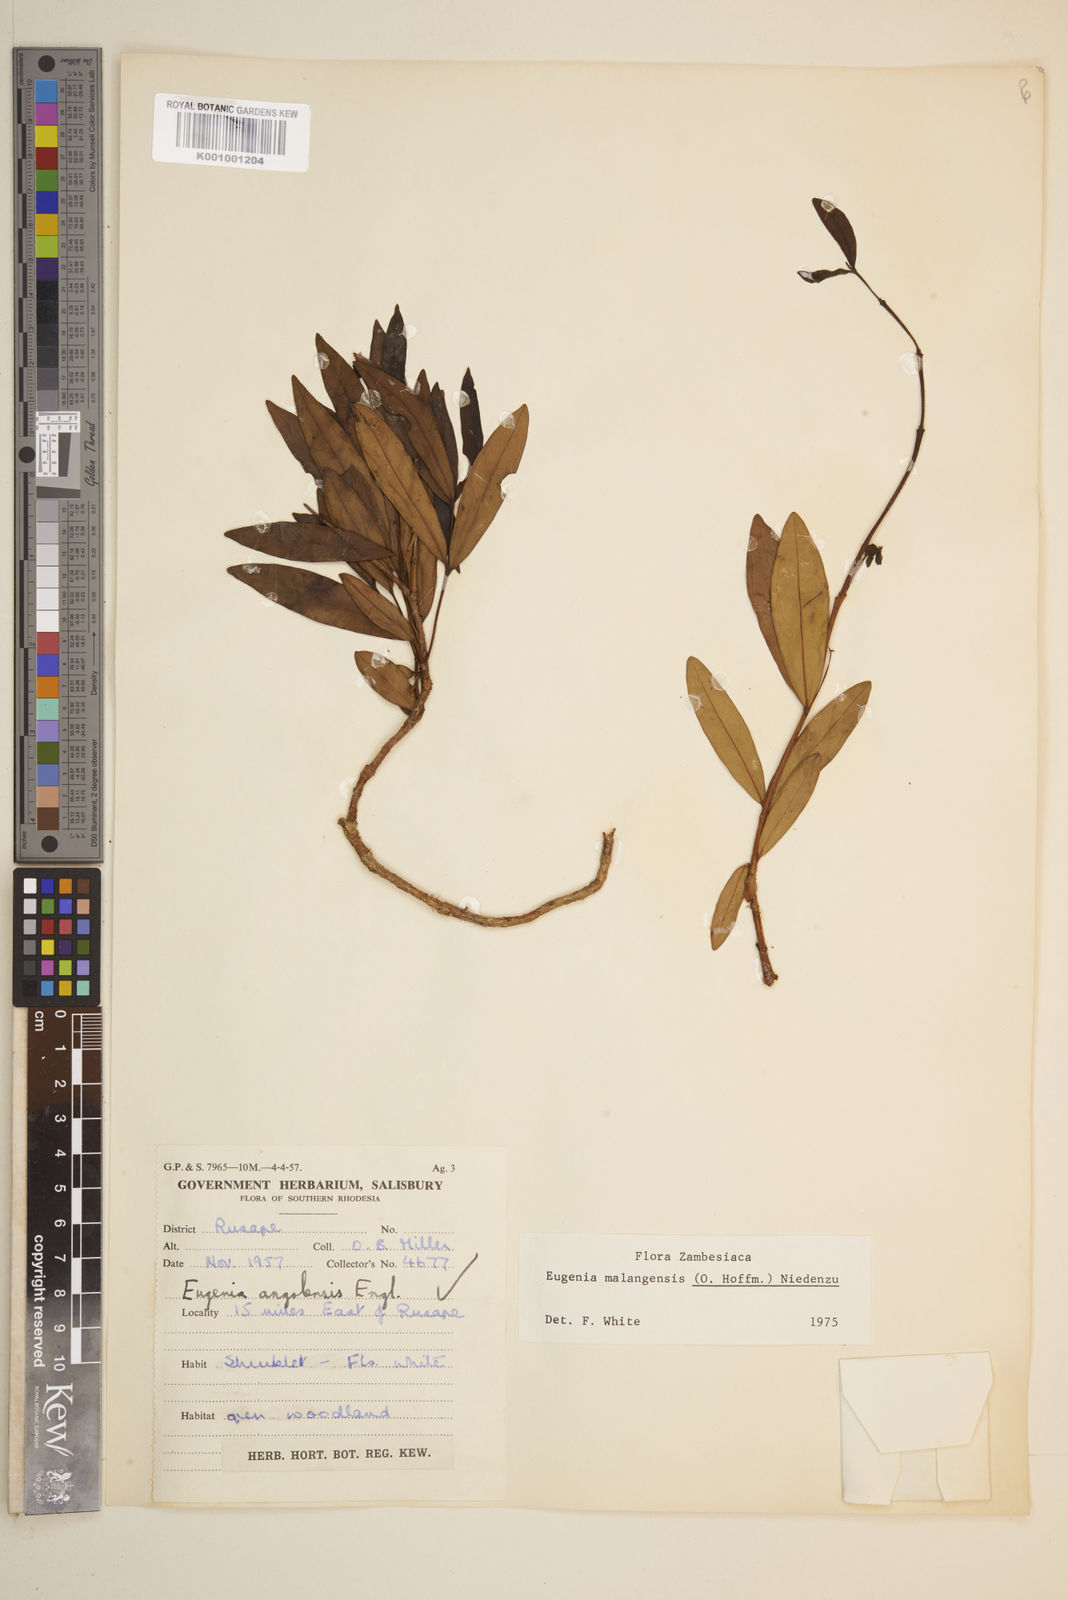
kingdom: Plantae
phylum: Tracheophyta
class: Magnoliopsida
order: Myrtales
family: Myrtaceae
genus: Eugenia
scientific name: Eugenia malangensis
